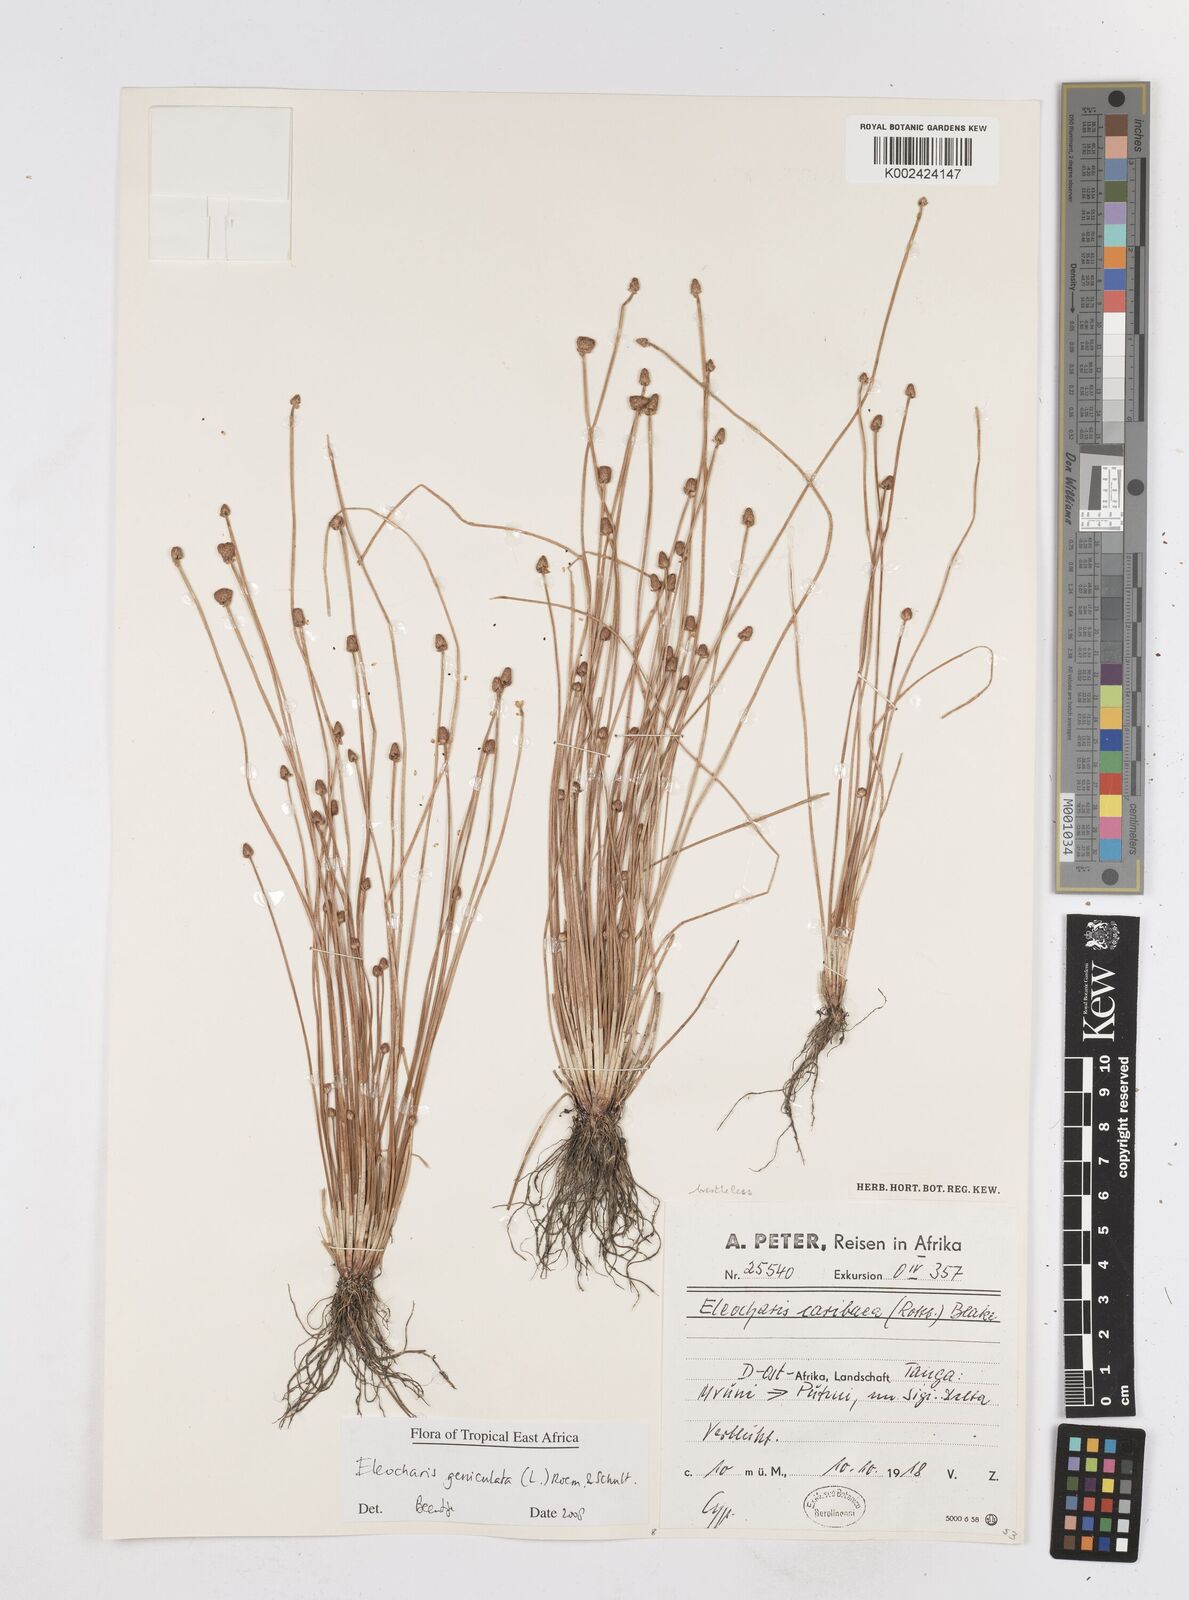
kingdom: Plantae
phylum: Tracheophyta
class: Liliopsida
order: Poales
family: Cyperaceae
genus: Eleocharis
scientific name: Eleocharis geniculata
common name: Canada spikesedge
